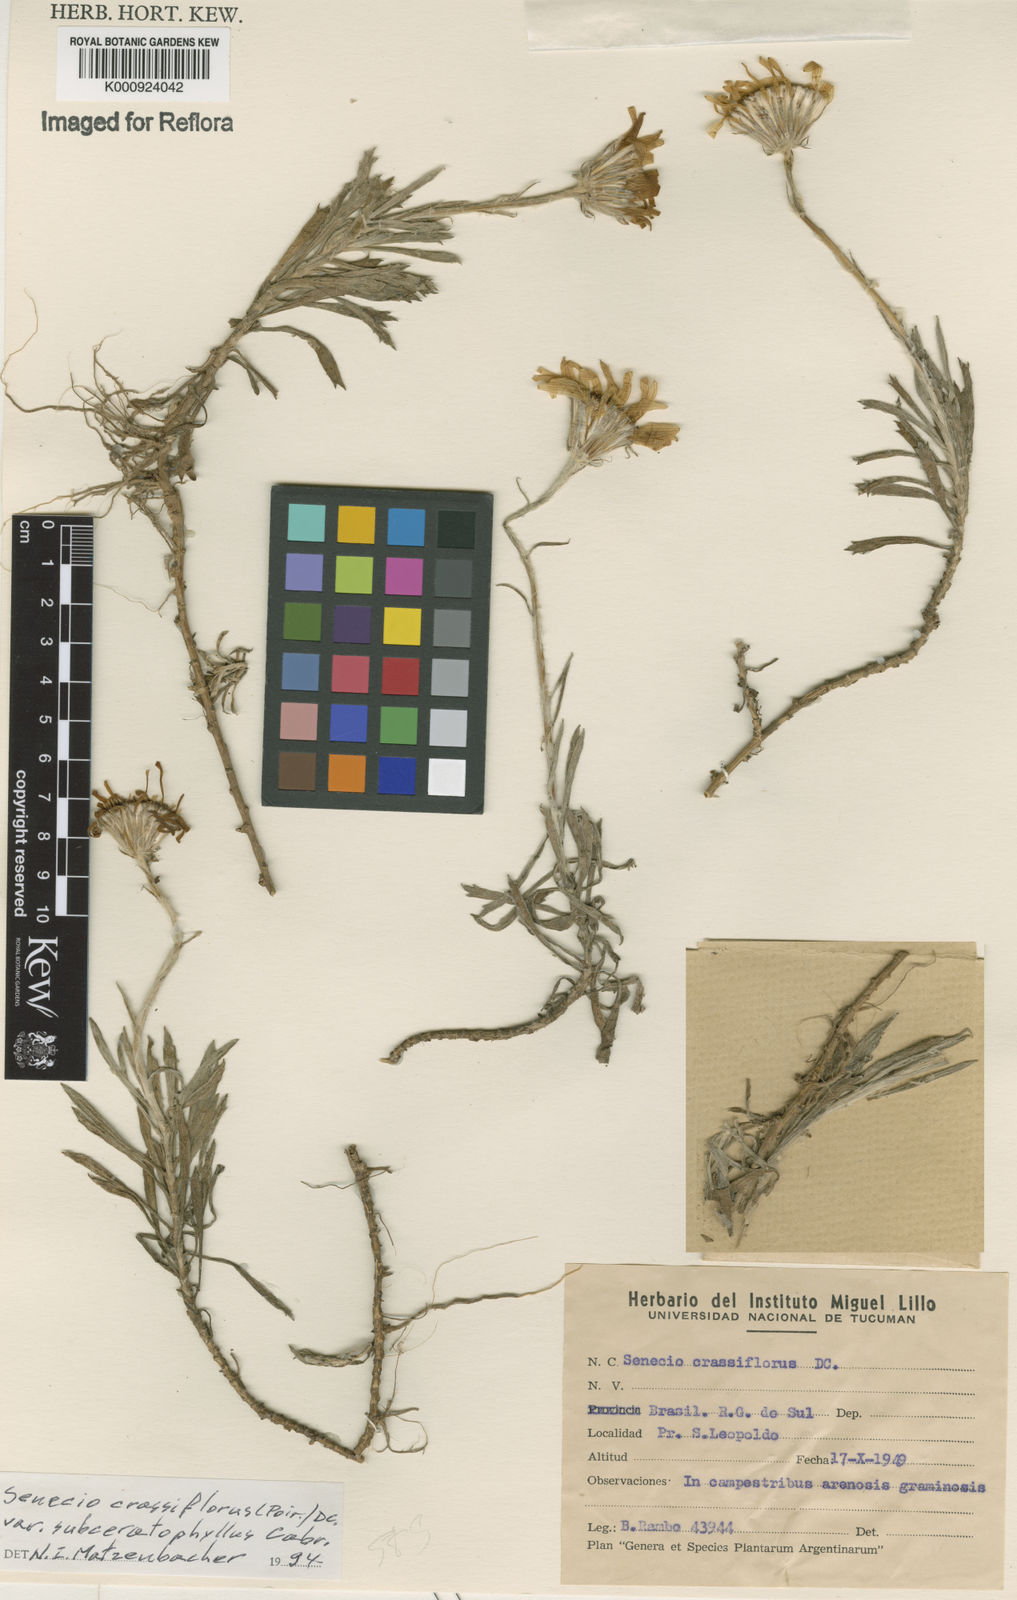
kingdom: Plantae
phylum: Tracheophyta
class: Magnoliopsida
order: Asterales
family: Asteraceae
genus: Senecio
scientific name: Senecio crassiflorus
